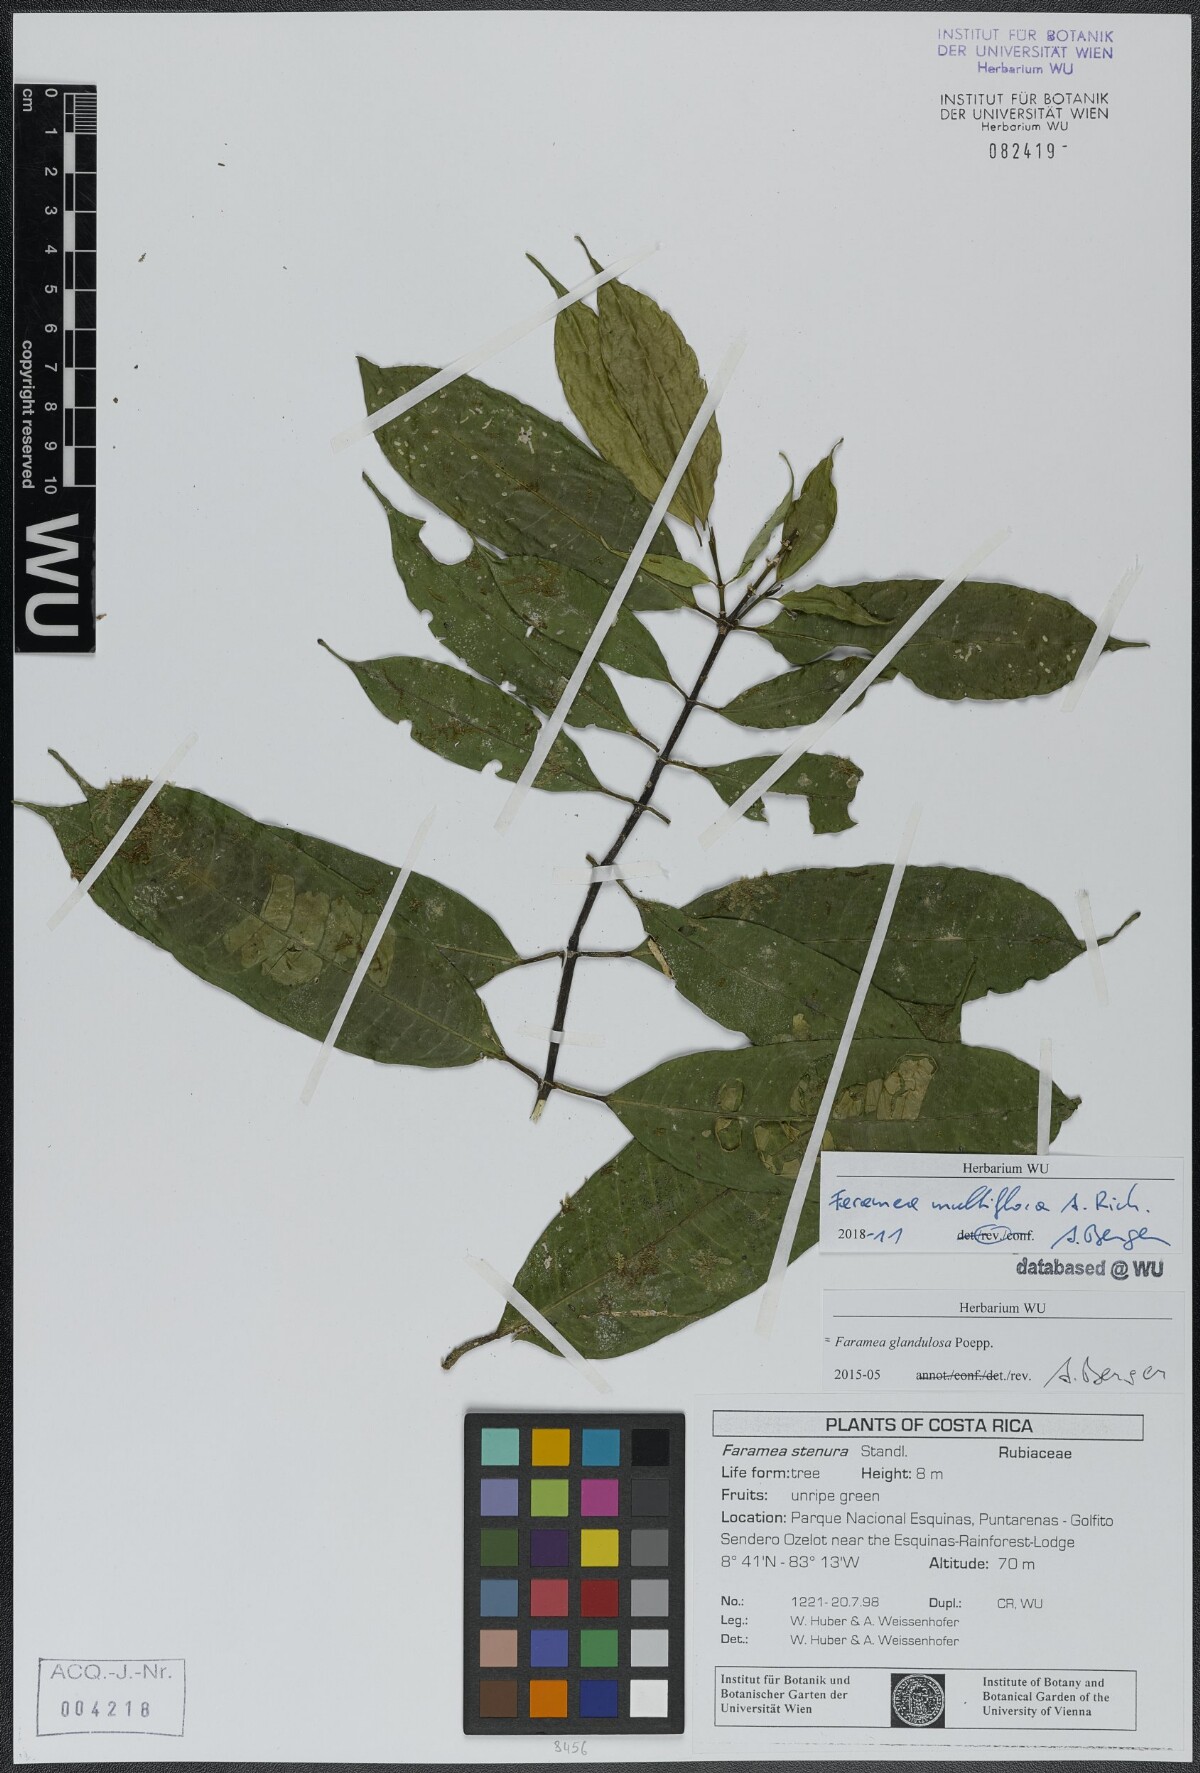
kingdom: Plantae
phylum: Tracheophyta
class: Magnoliopsida
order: Gentianales
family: Rubiaceae
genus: Faramea
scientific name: Faramea multiflora
